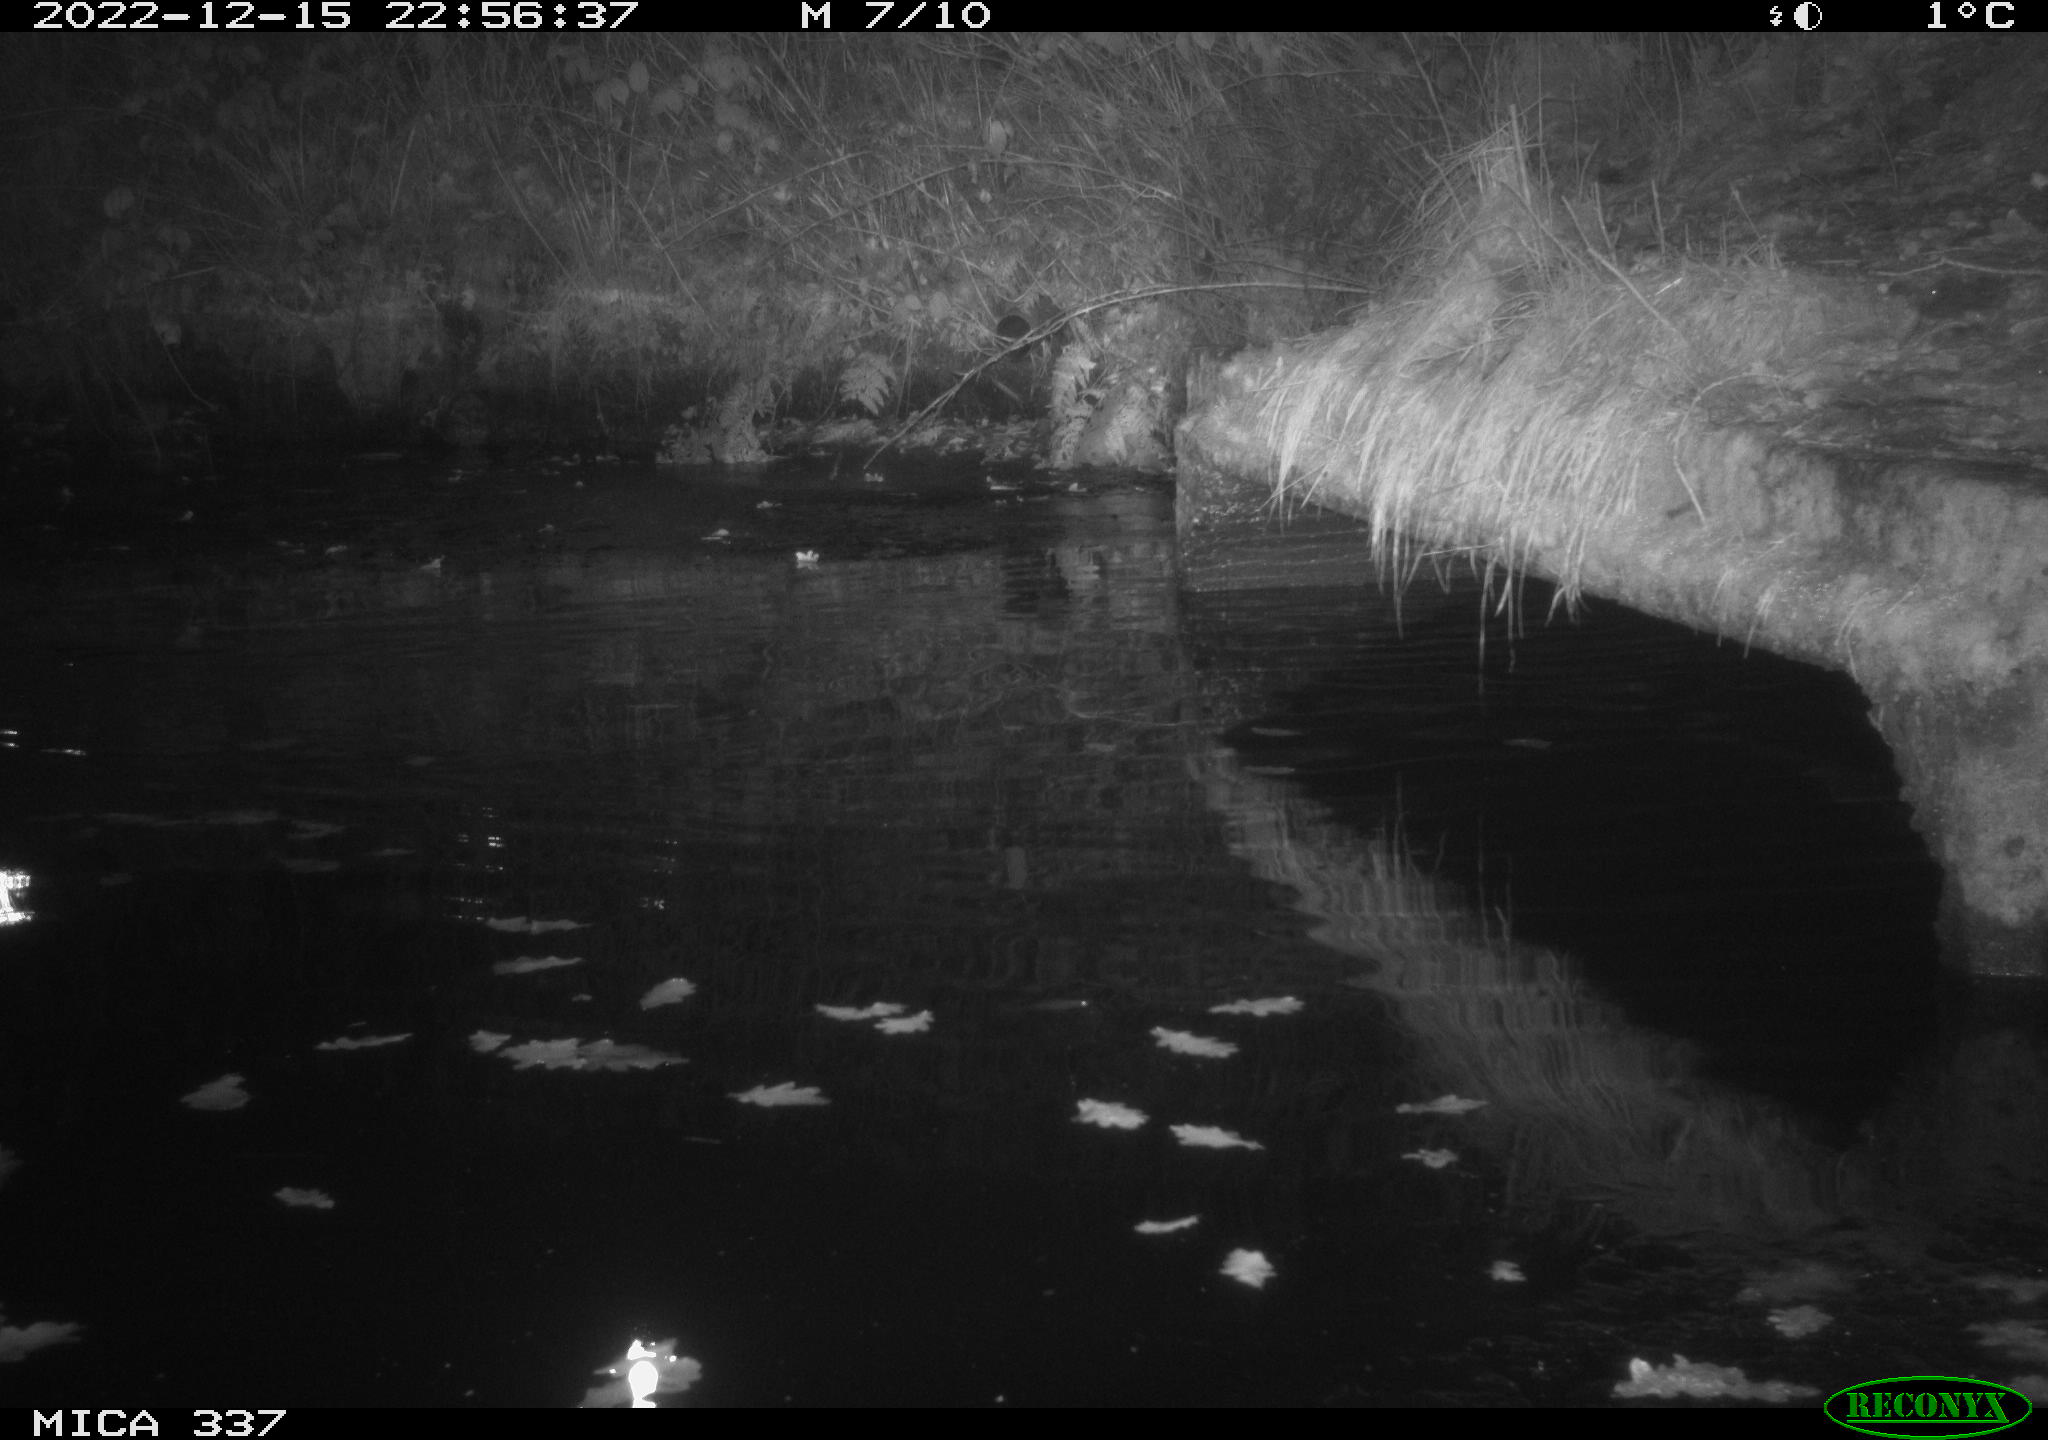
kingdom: Animalia
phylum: Chordata
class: Aves
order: Anseriformes
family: Anatidae
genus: Anas
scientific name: Anas
